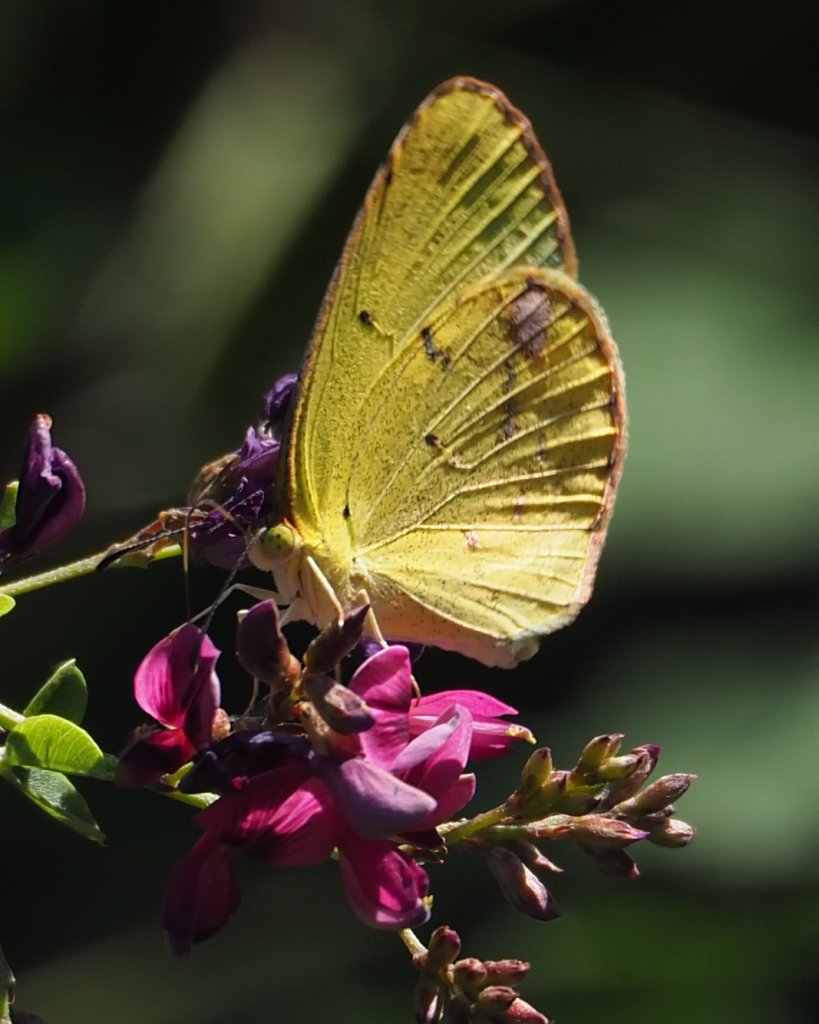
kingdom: Animalia
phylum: Arthropoda
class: Insecta
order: Lepidoptera
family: Pieridae
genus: Pyrisitia
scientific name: Pyrisitia lisa
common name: Little Yellow
